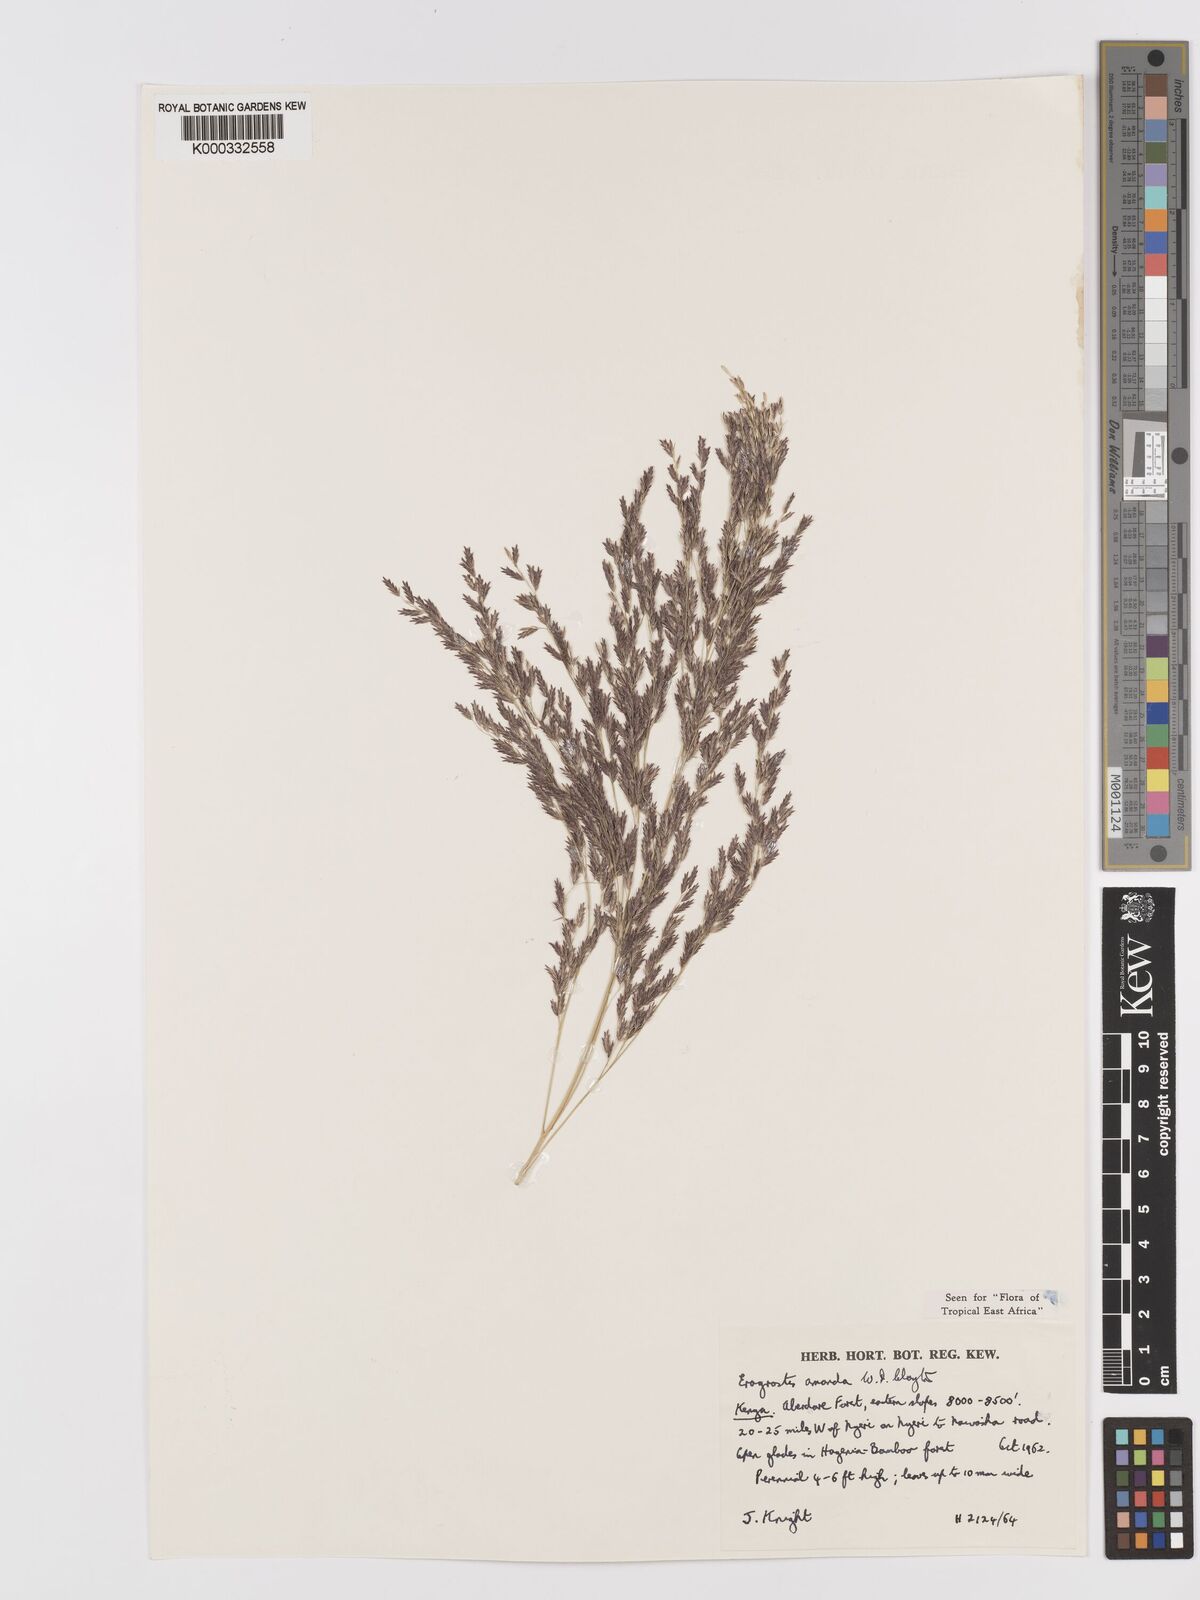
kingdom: Plantae
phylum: Tracheophyta
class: Liliopsida
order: Poales
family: Poaceae
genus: Eragrostis
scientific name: Eragrostis amanda
